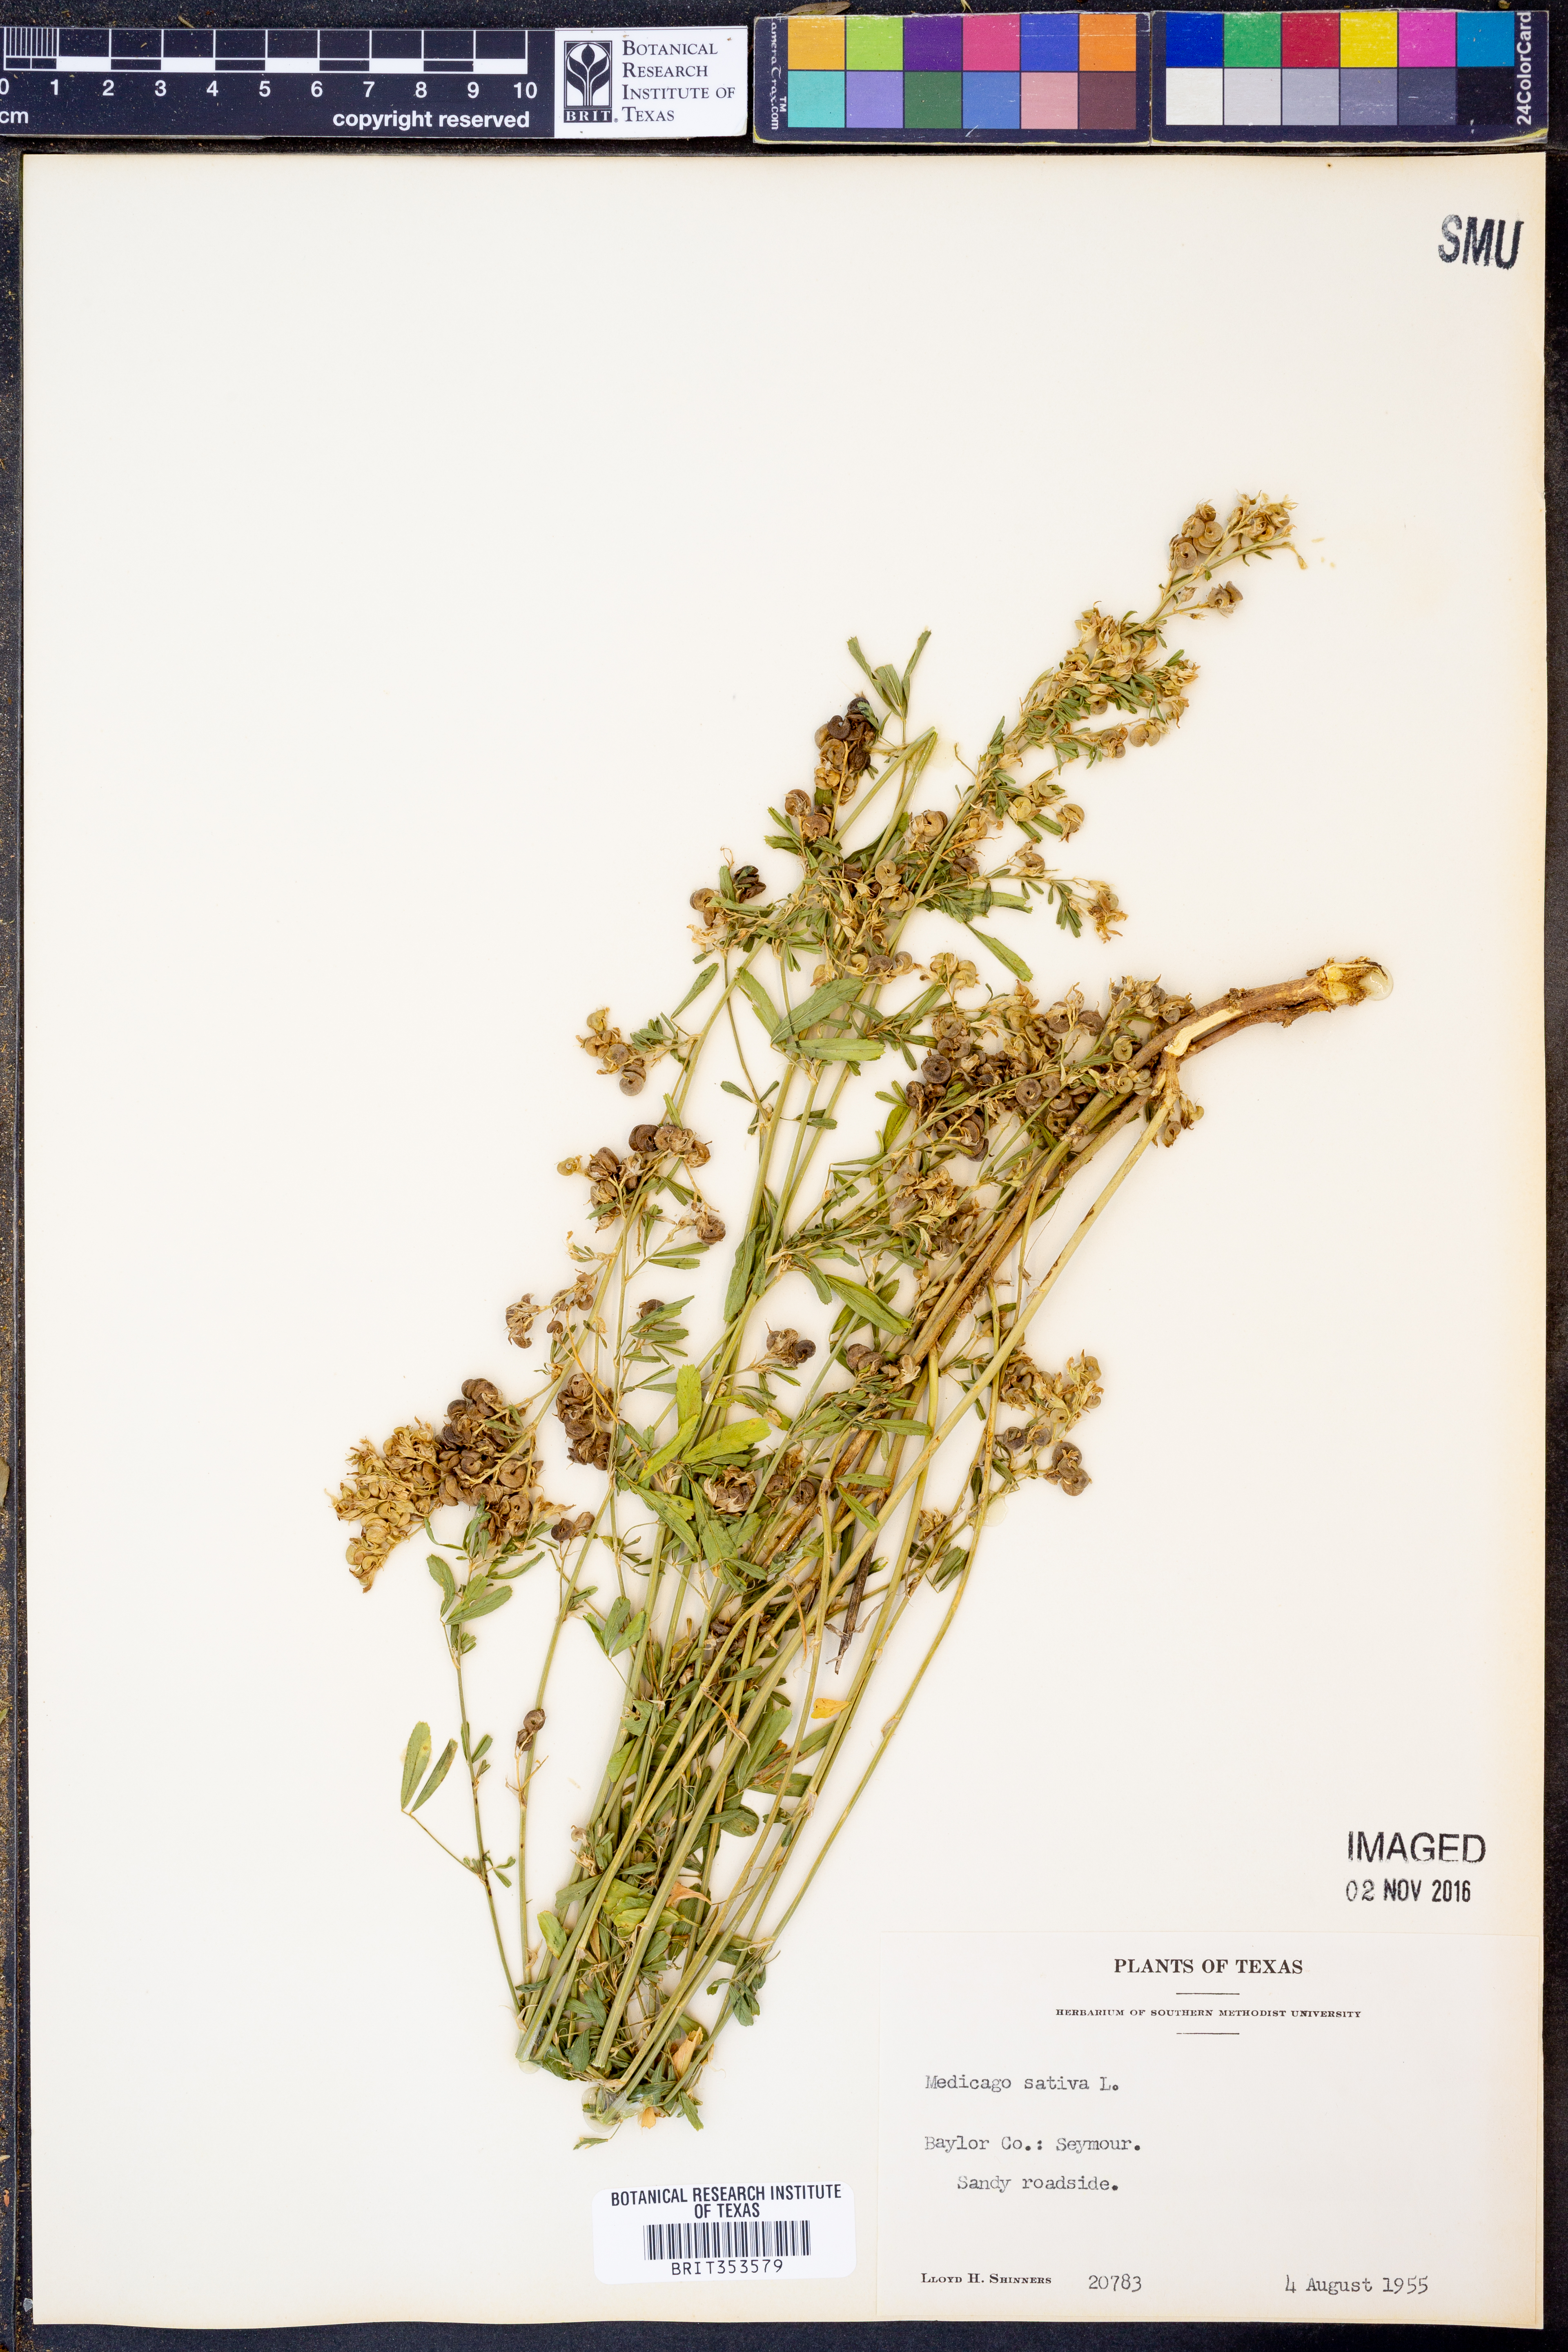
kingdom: Plantae
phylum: Tracheophyta
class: Magnoliopsida
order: Fabales
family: Fabaceae
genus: Medicago
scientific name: Medicago sativa
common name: Alfalfa
